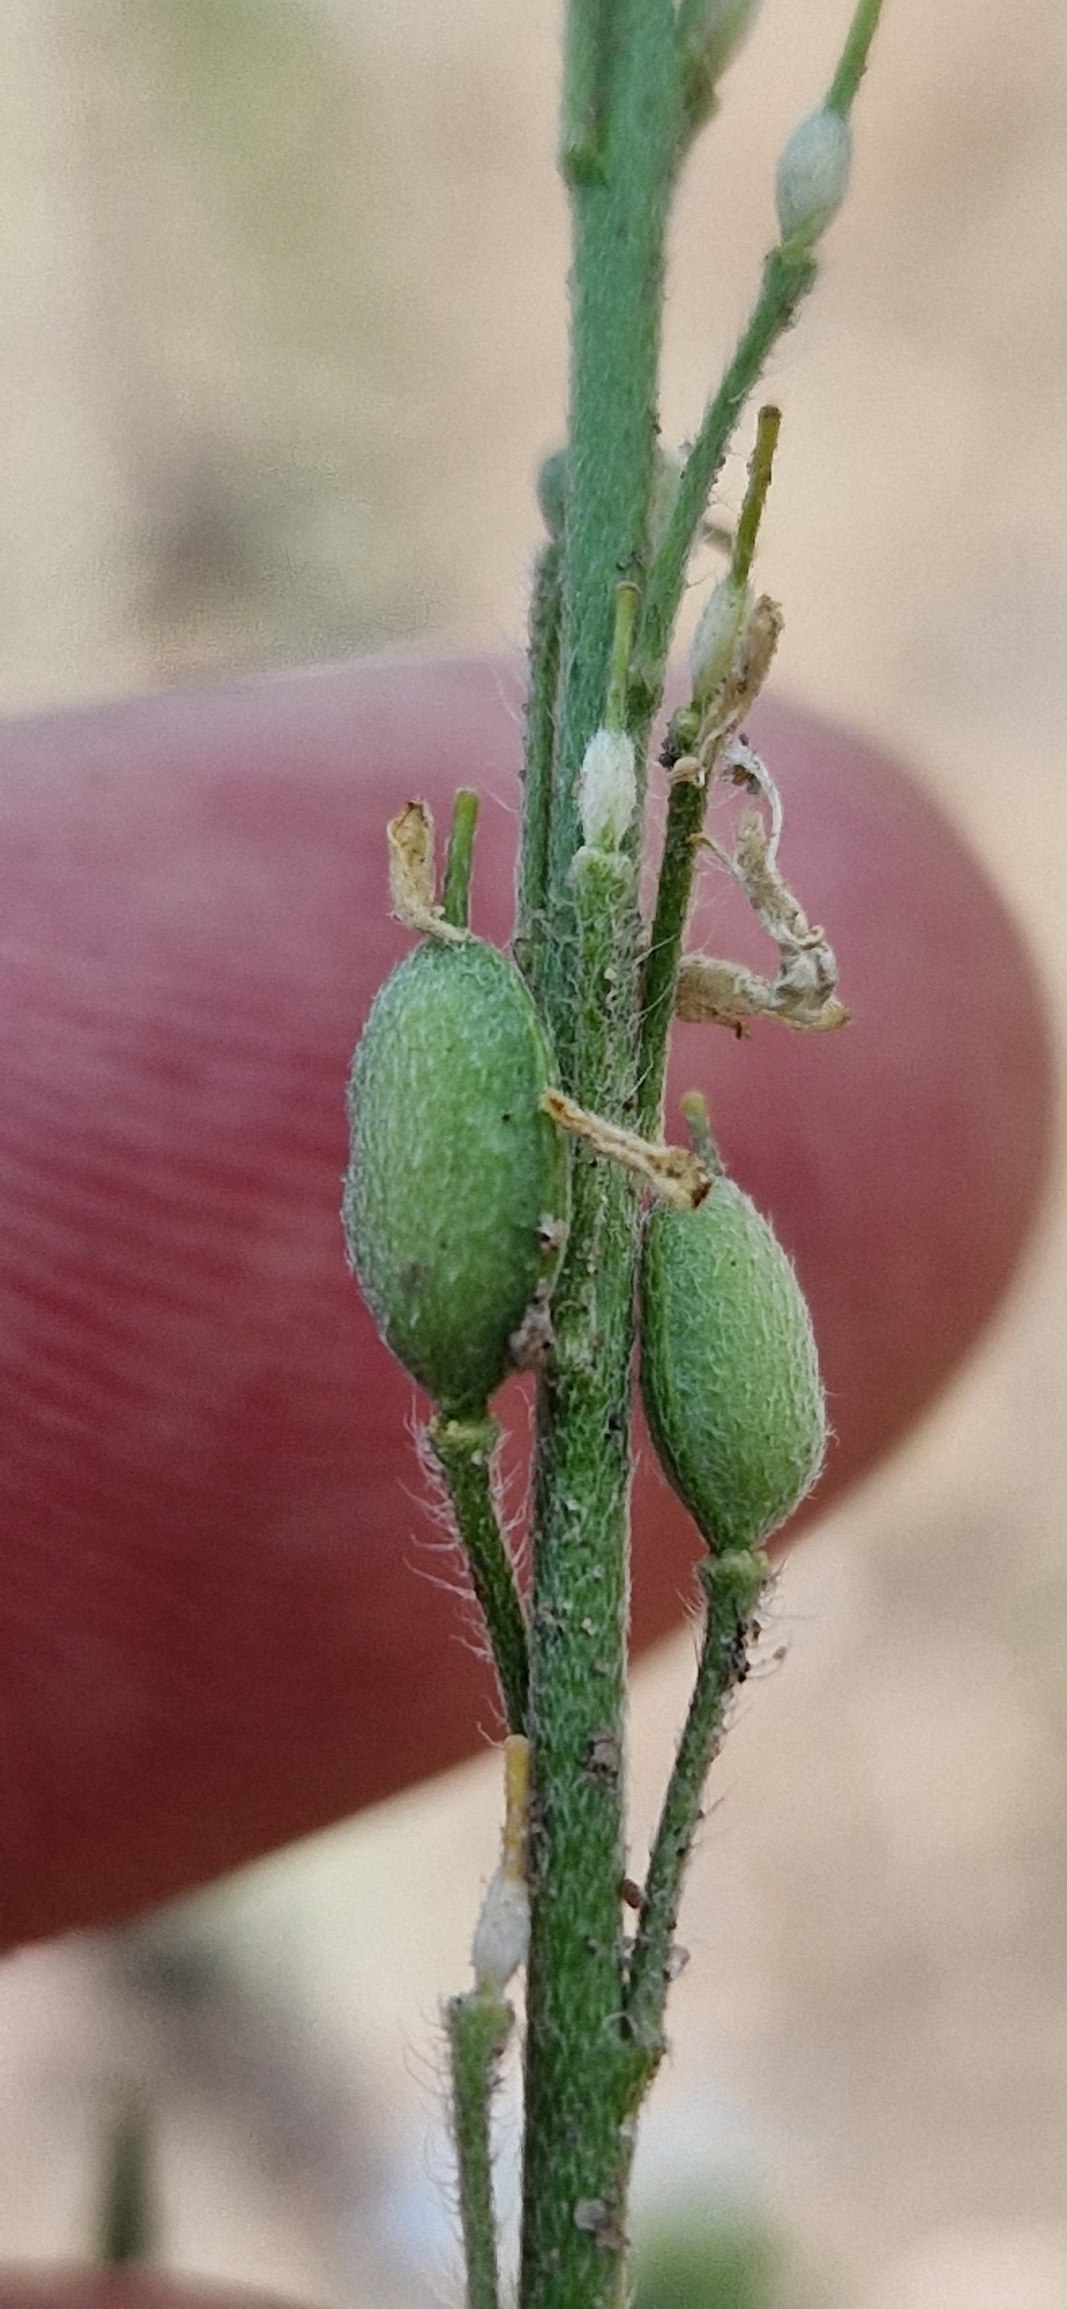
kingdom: Plantae
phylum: Tracheophyta
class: Magnoliopsida
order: Brassicales
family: Brassicaceae
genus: Berteroa
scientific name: Berteroa incana
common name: Kløvplade
